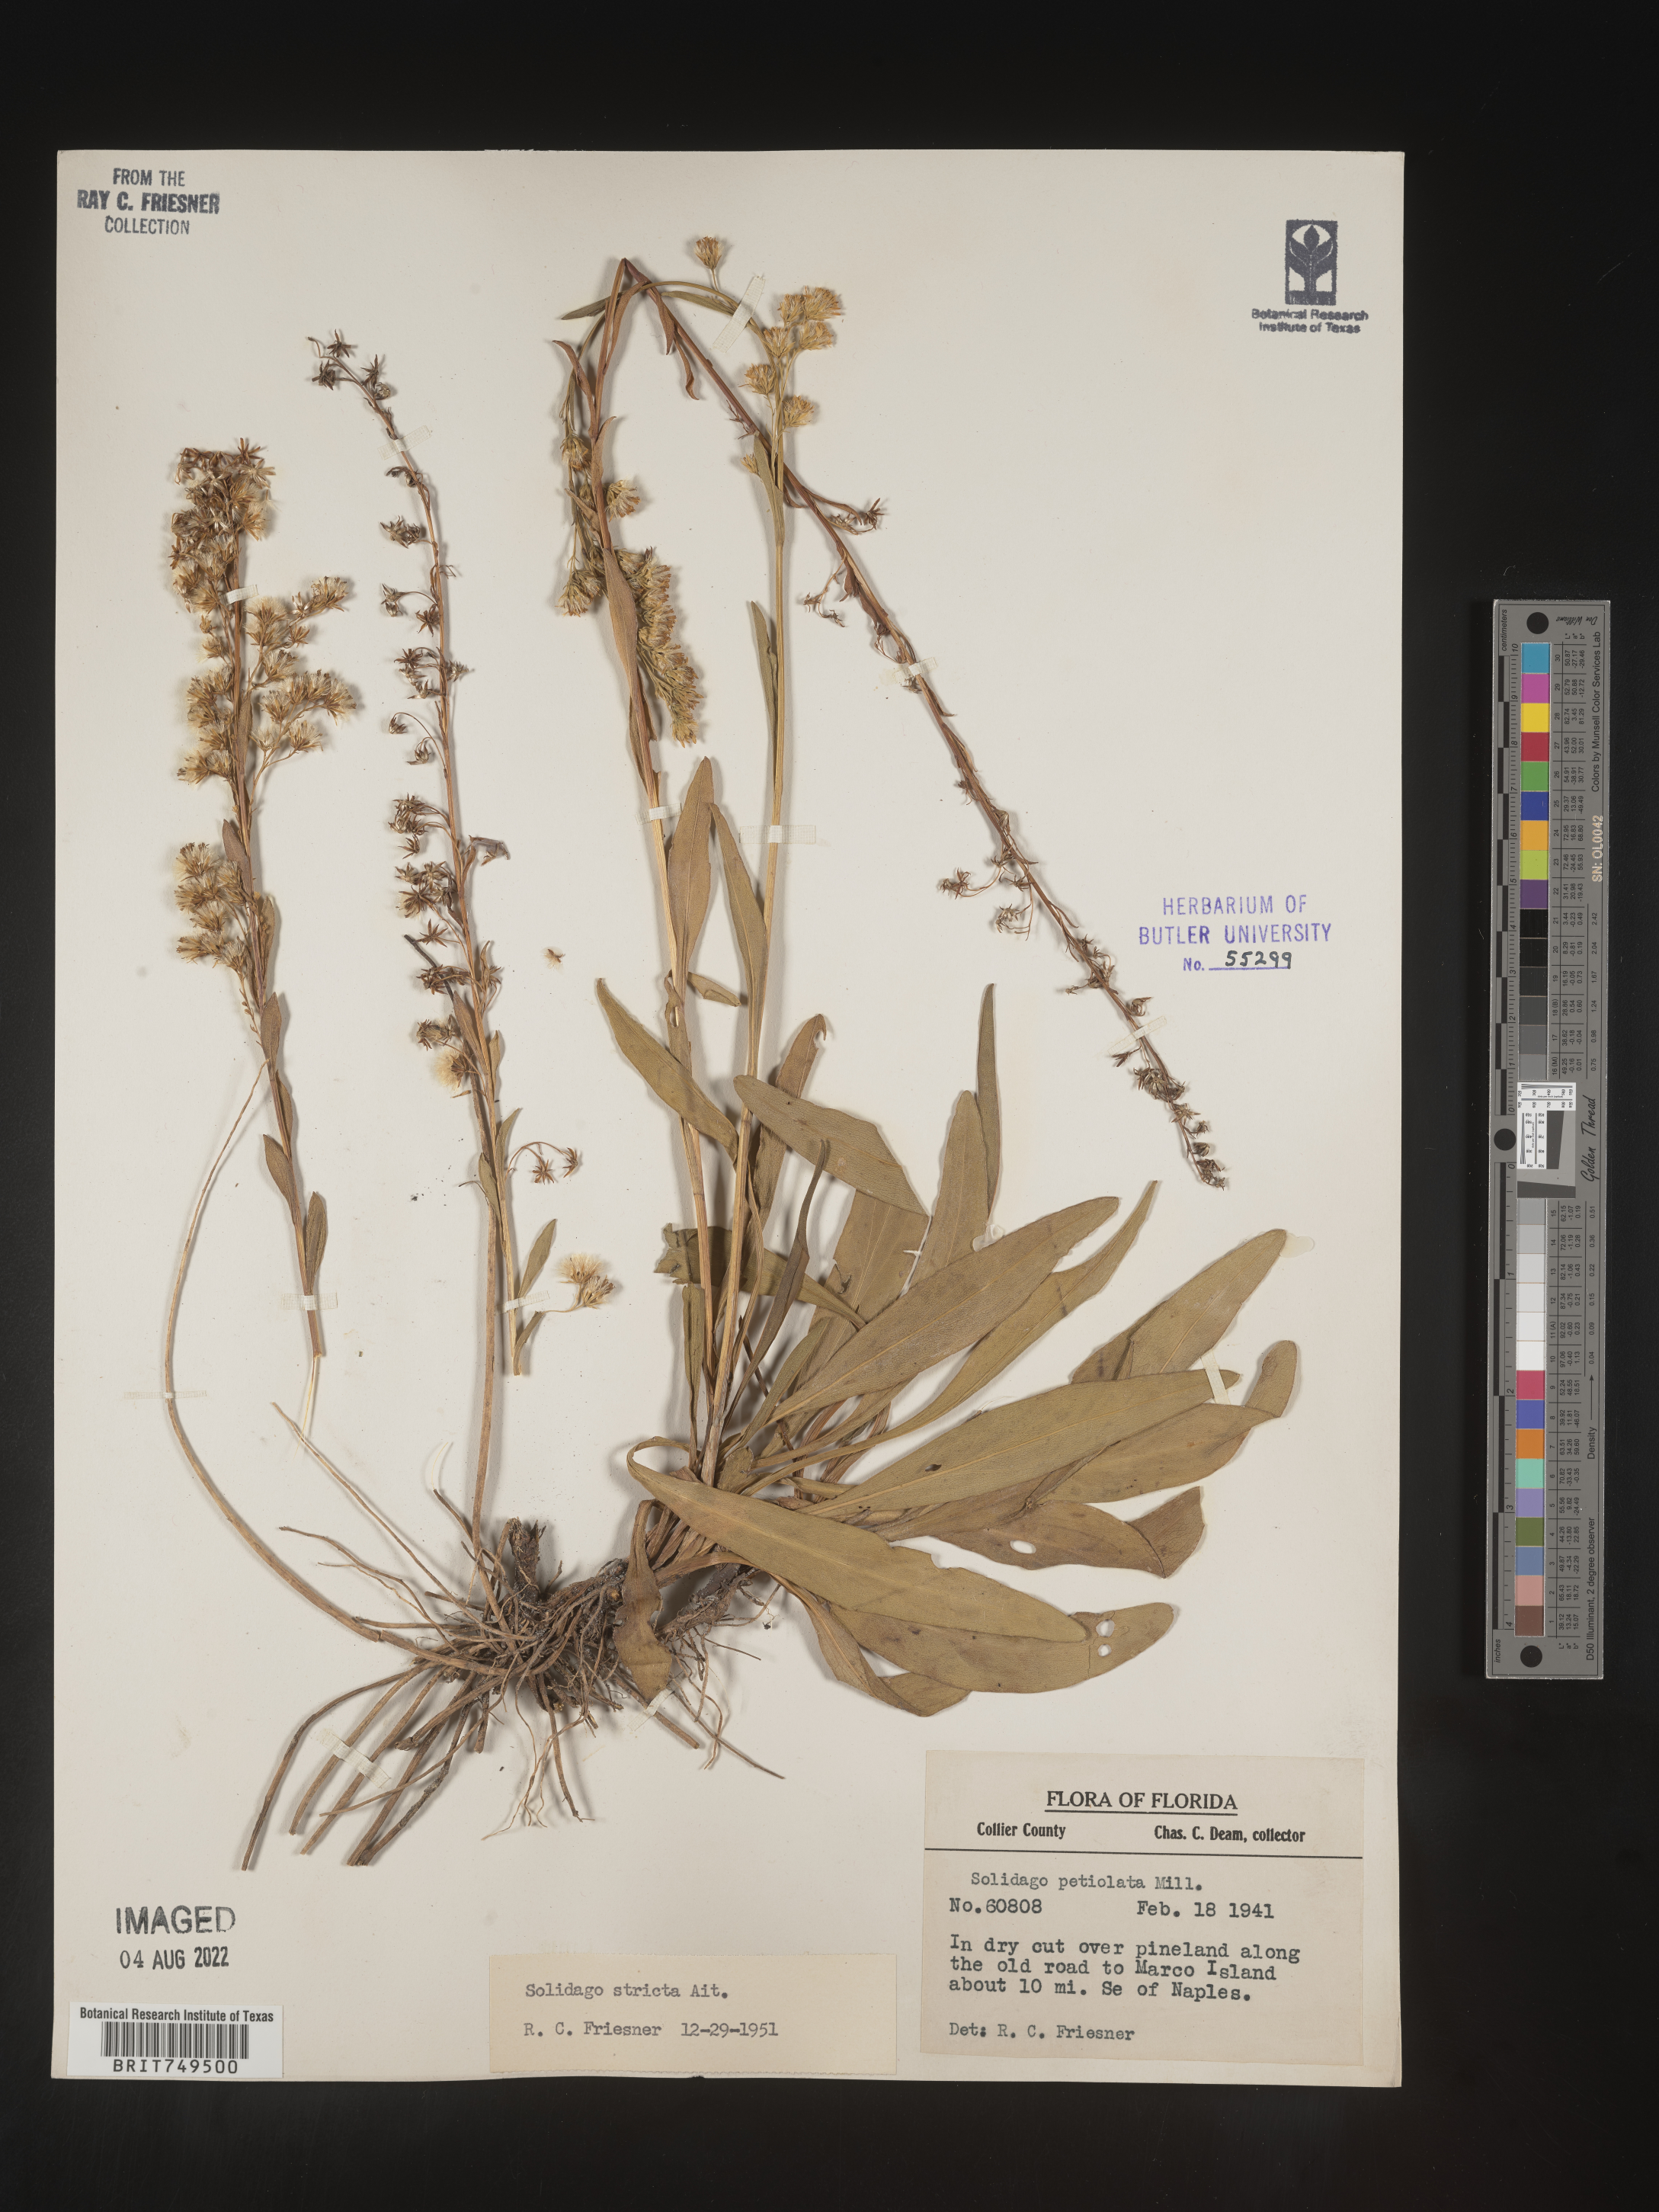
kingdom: Plantae
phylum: Tracheophyta
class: Magnoliopsida
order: Asterales
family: Asteraceae
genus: Solidago
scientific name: Solidago stricta
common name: Pine barren bog goldenrod
